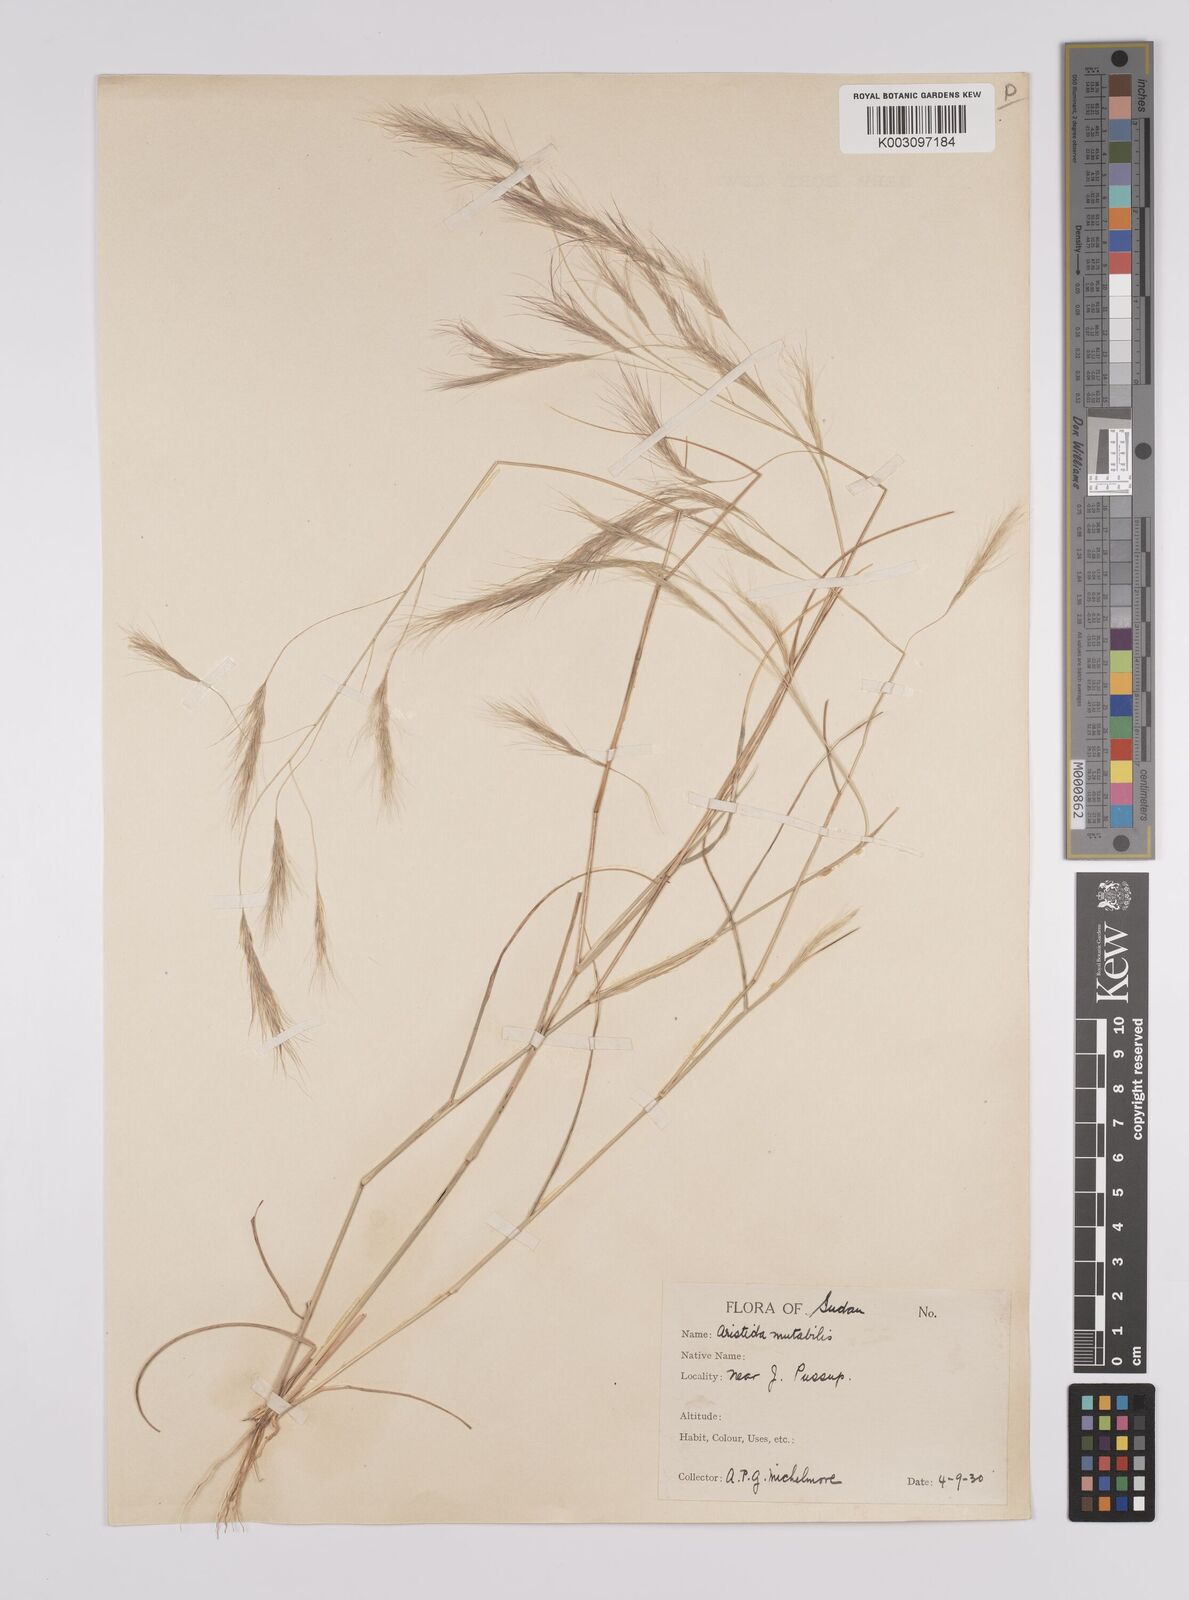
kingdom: Plantae
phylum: Tracheophyta
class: Liliopsida
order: Poales
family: Poaceae
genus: Aristida
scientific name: Aristida mutabilis
